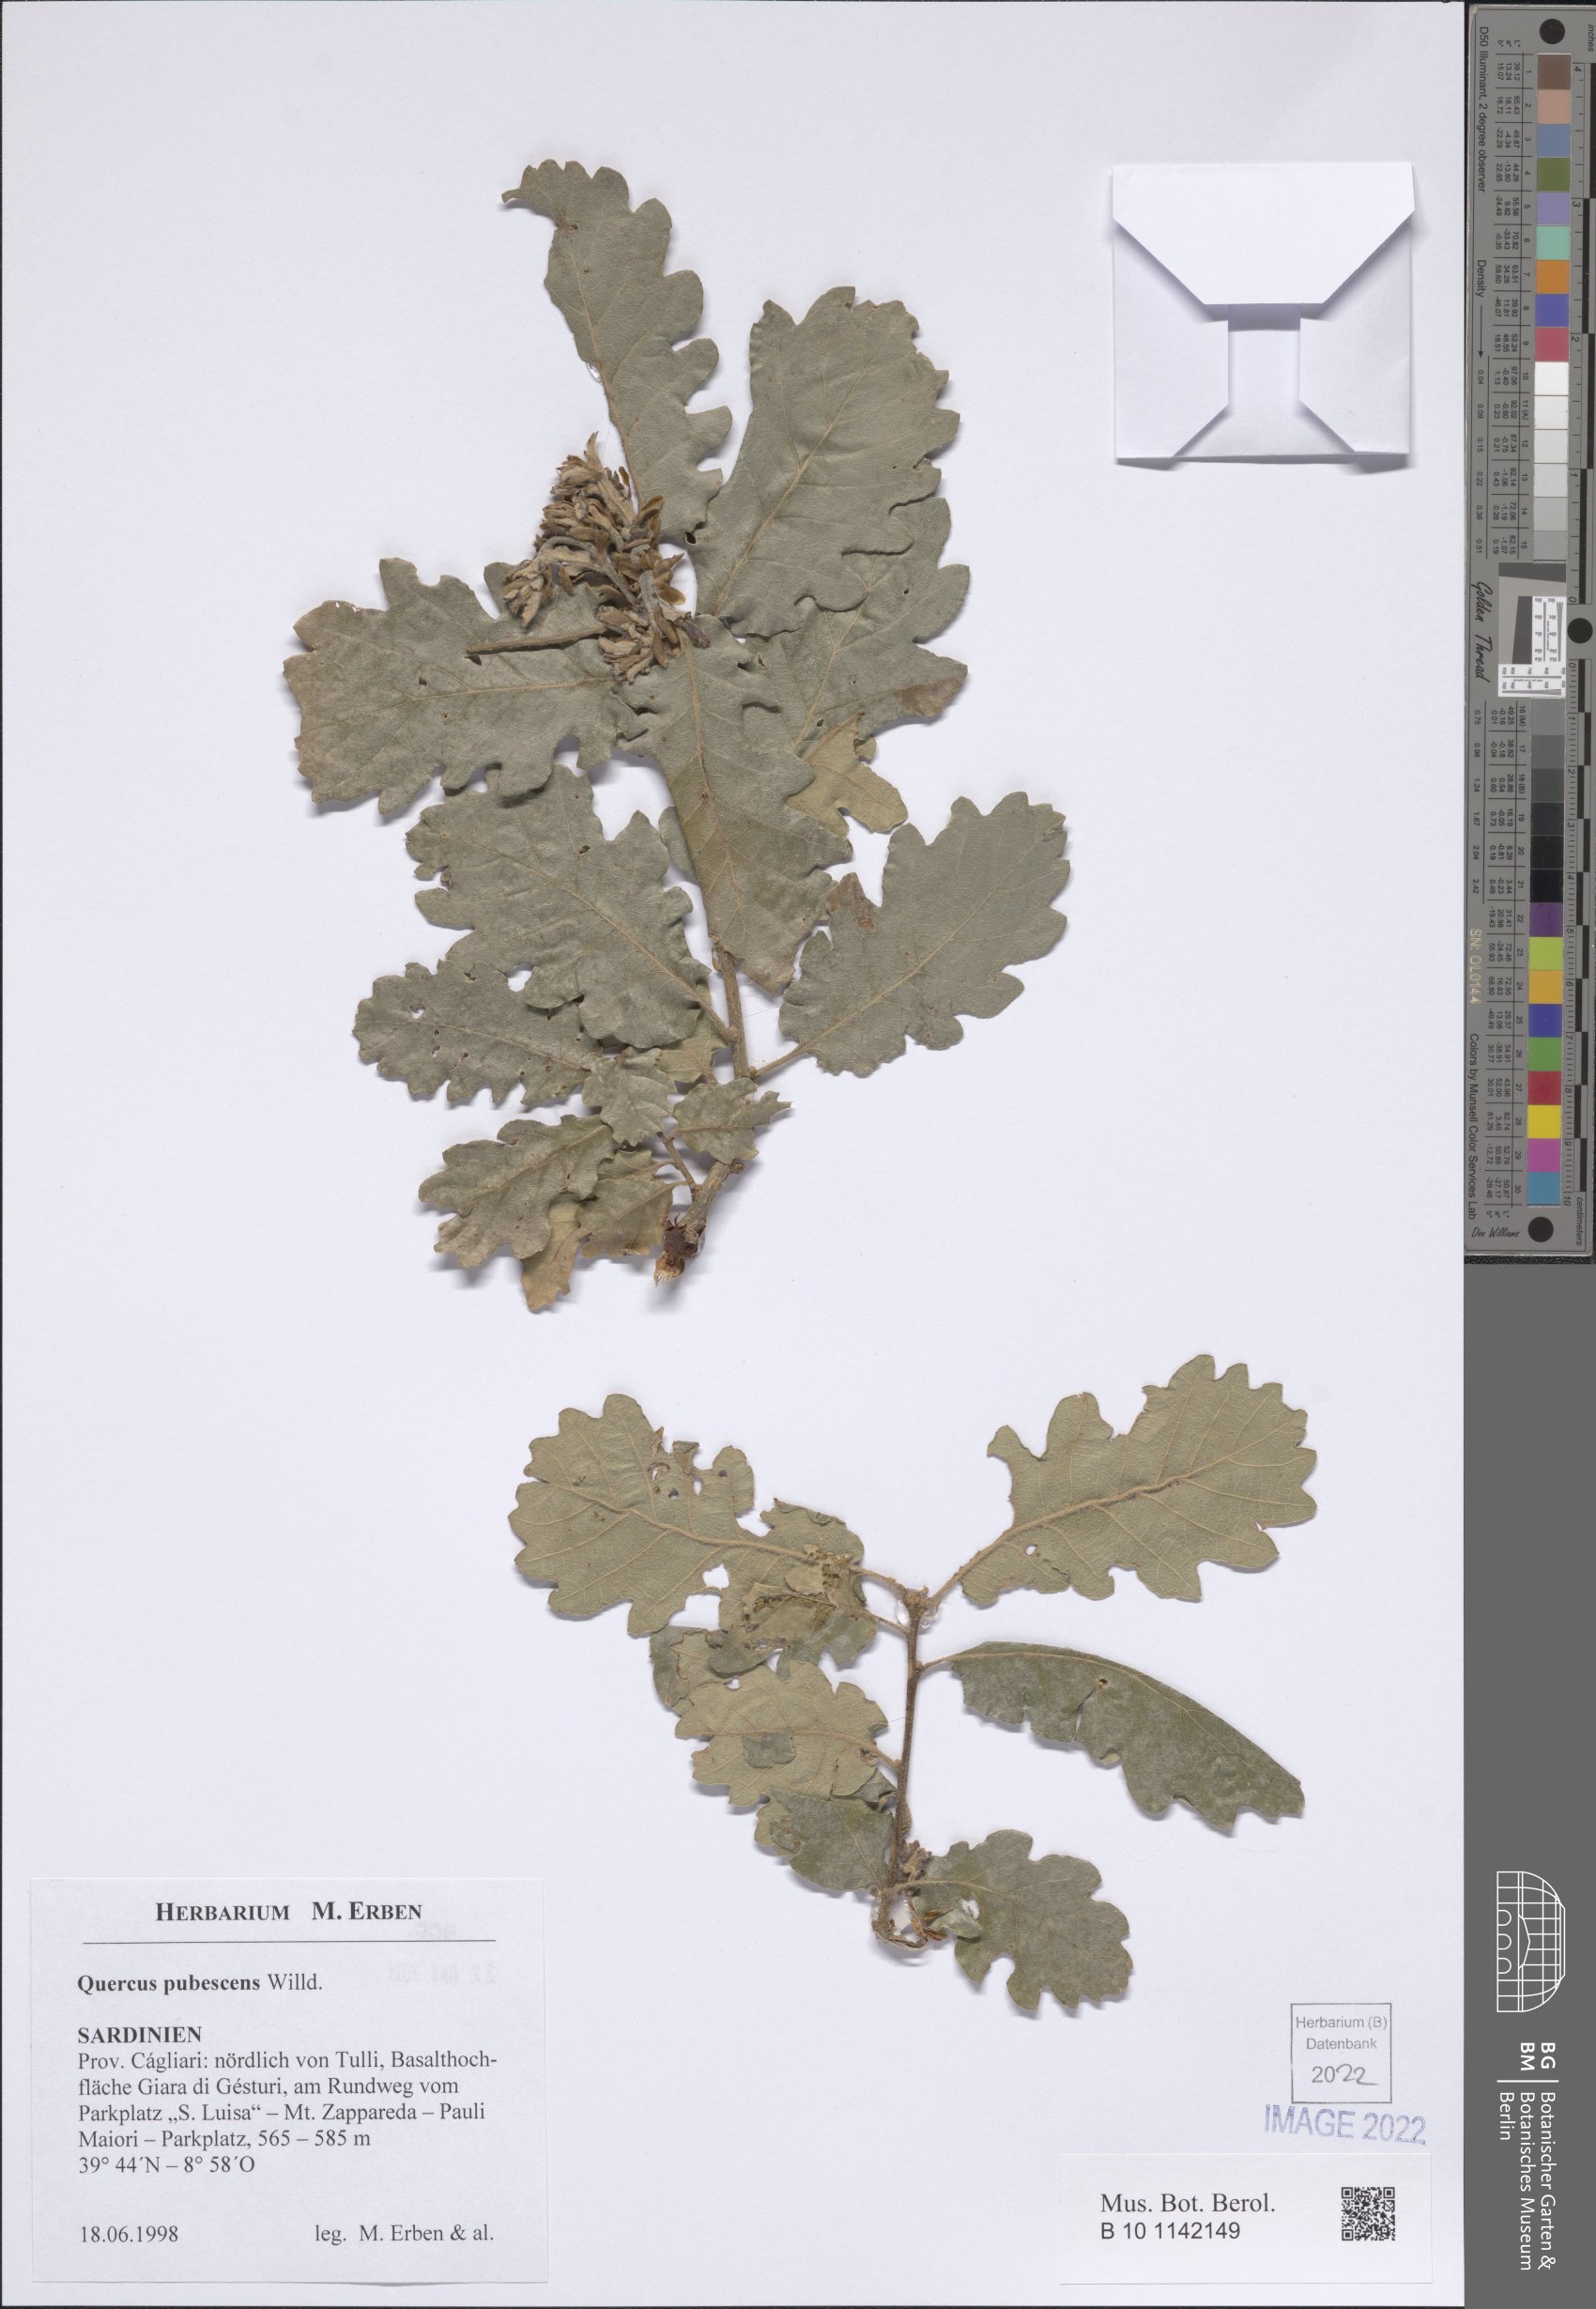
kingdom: Plantae
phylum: Tracheophyta
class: Magnoliopsida
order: Fagales
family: Fagaceae
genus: Quercus
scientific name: Quercus pubescens
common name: Downy oak
